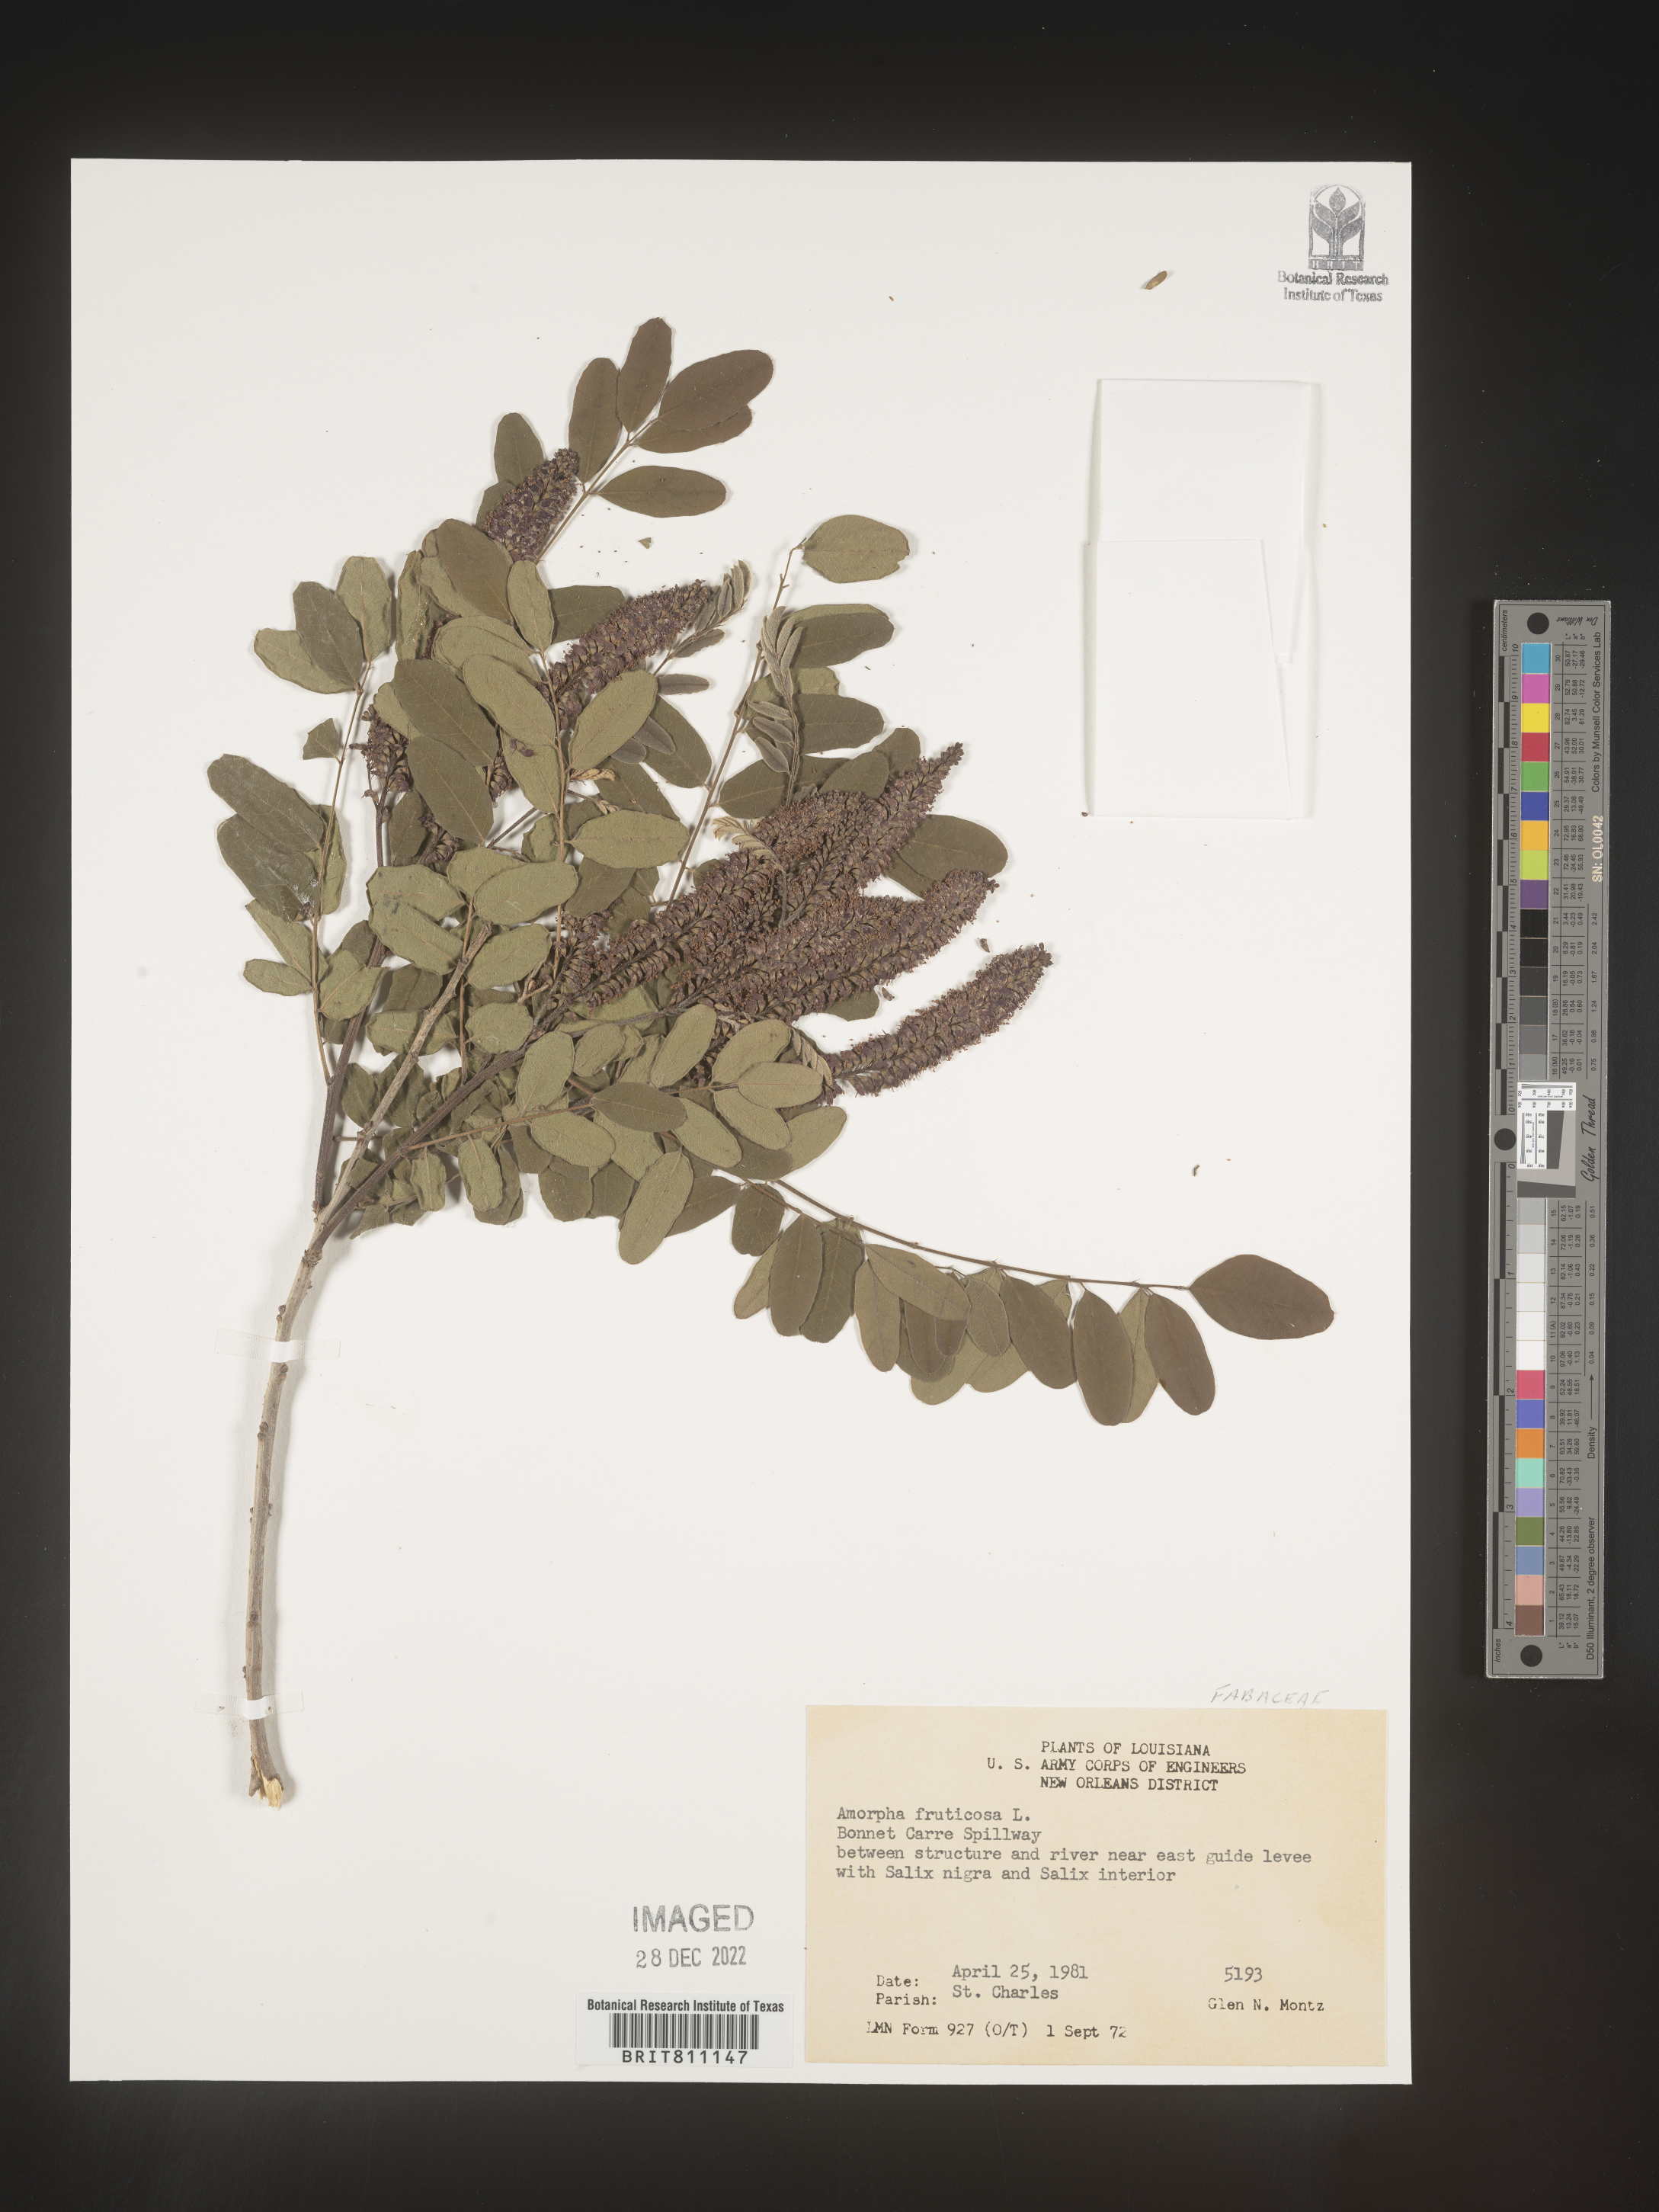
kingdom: Plantae
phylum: Tracheophyta
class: Magnoliopsida
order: Fabales
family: Fabaceae
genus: Amorpha
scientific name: Amorpha fruticosa
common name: False indigo
